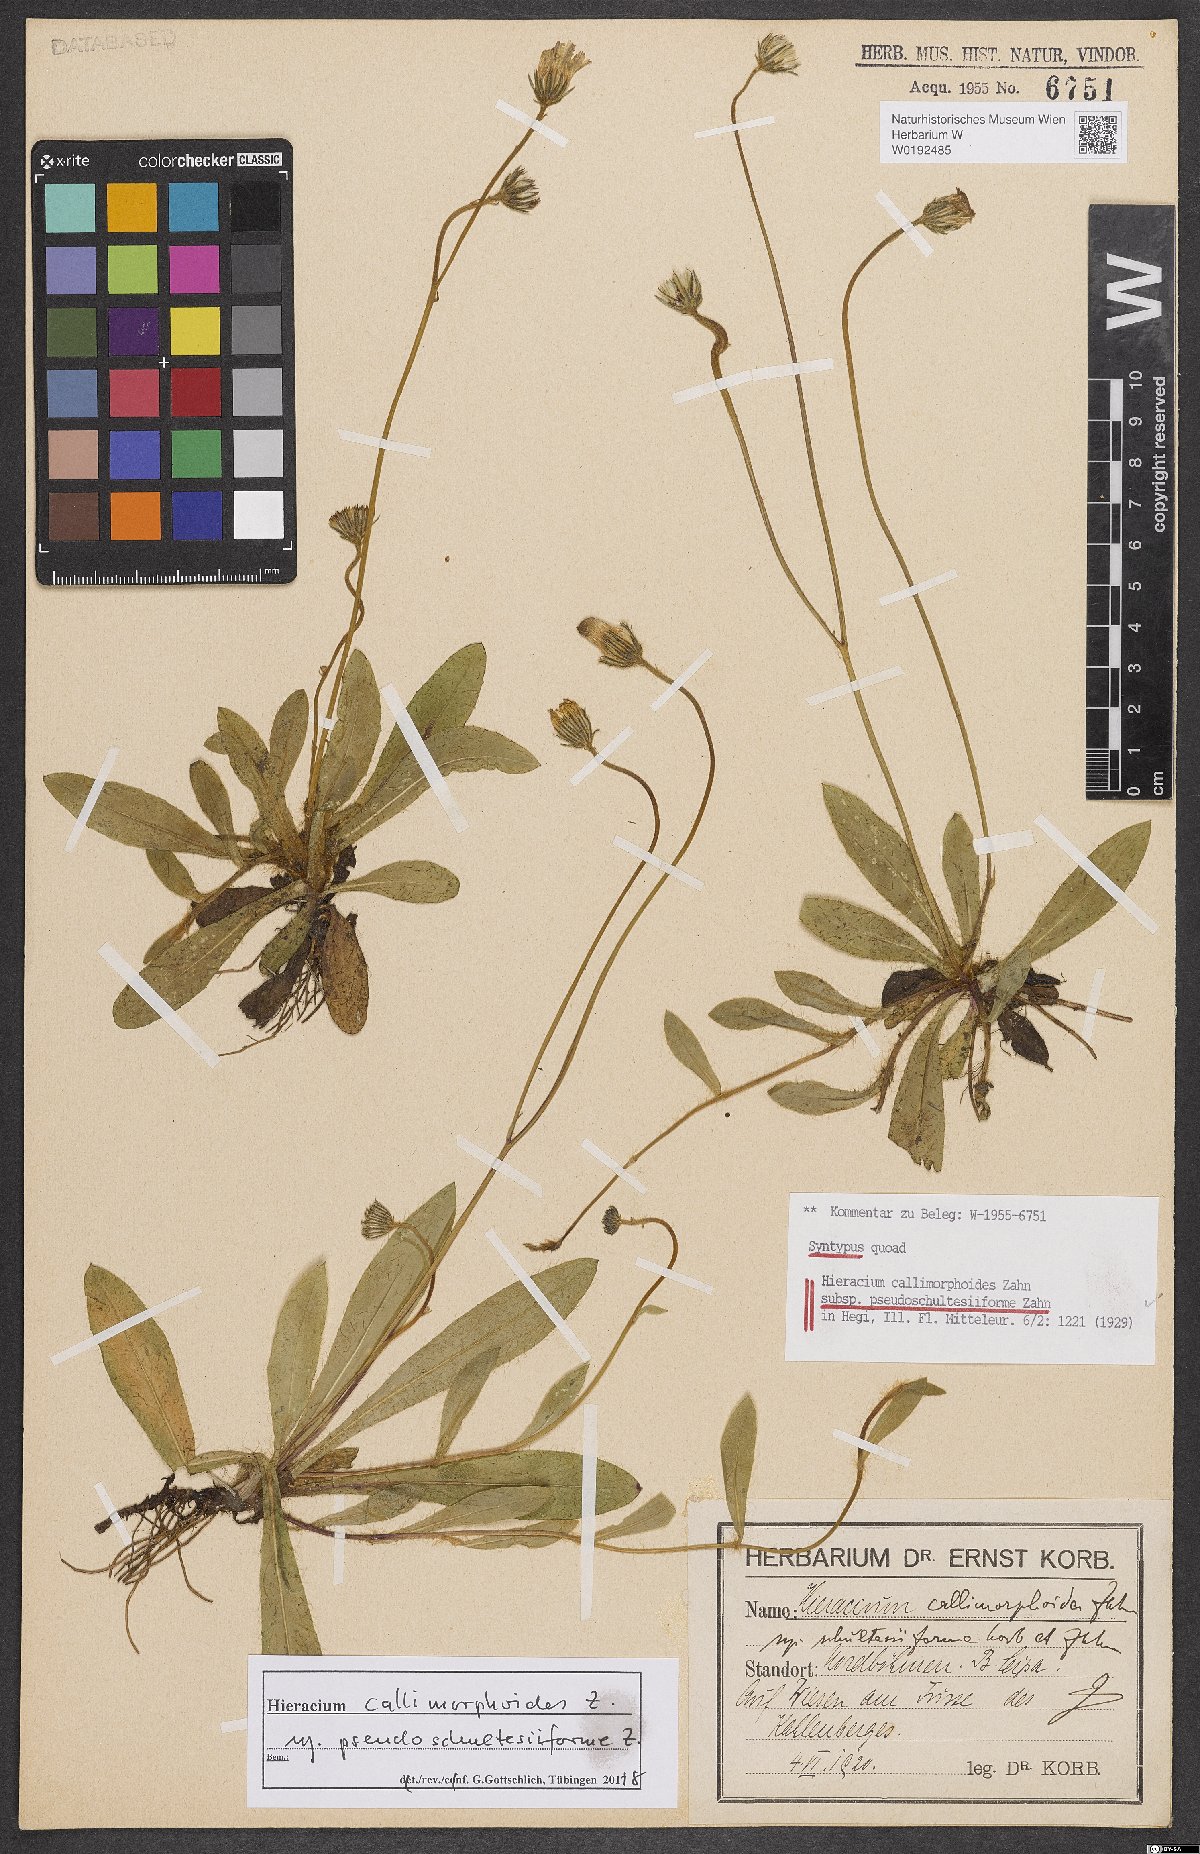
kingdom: Plantae
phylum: Tracheophyta
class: Magnoliopsida
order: Asterales
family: Asteraceae
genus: Pilosella
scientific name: Pilosella piloselliflora
